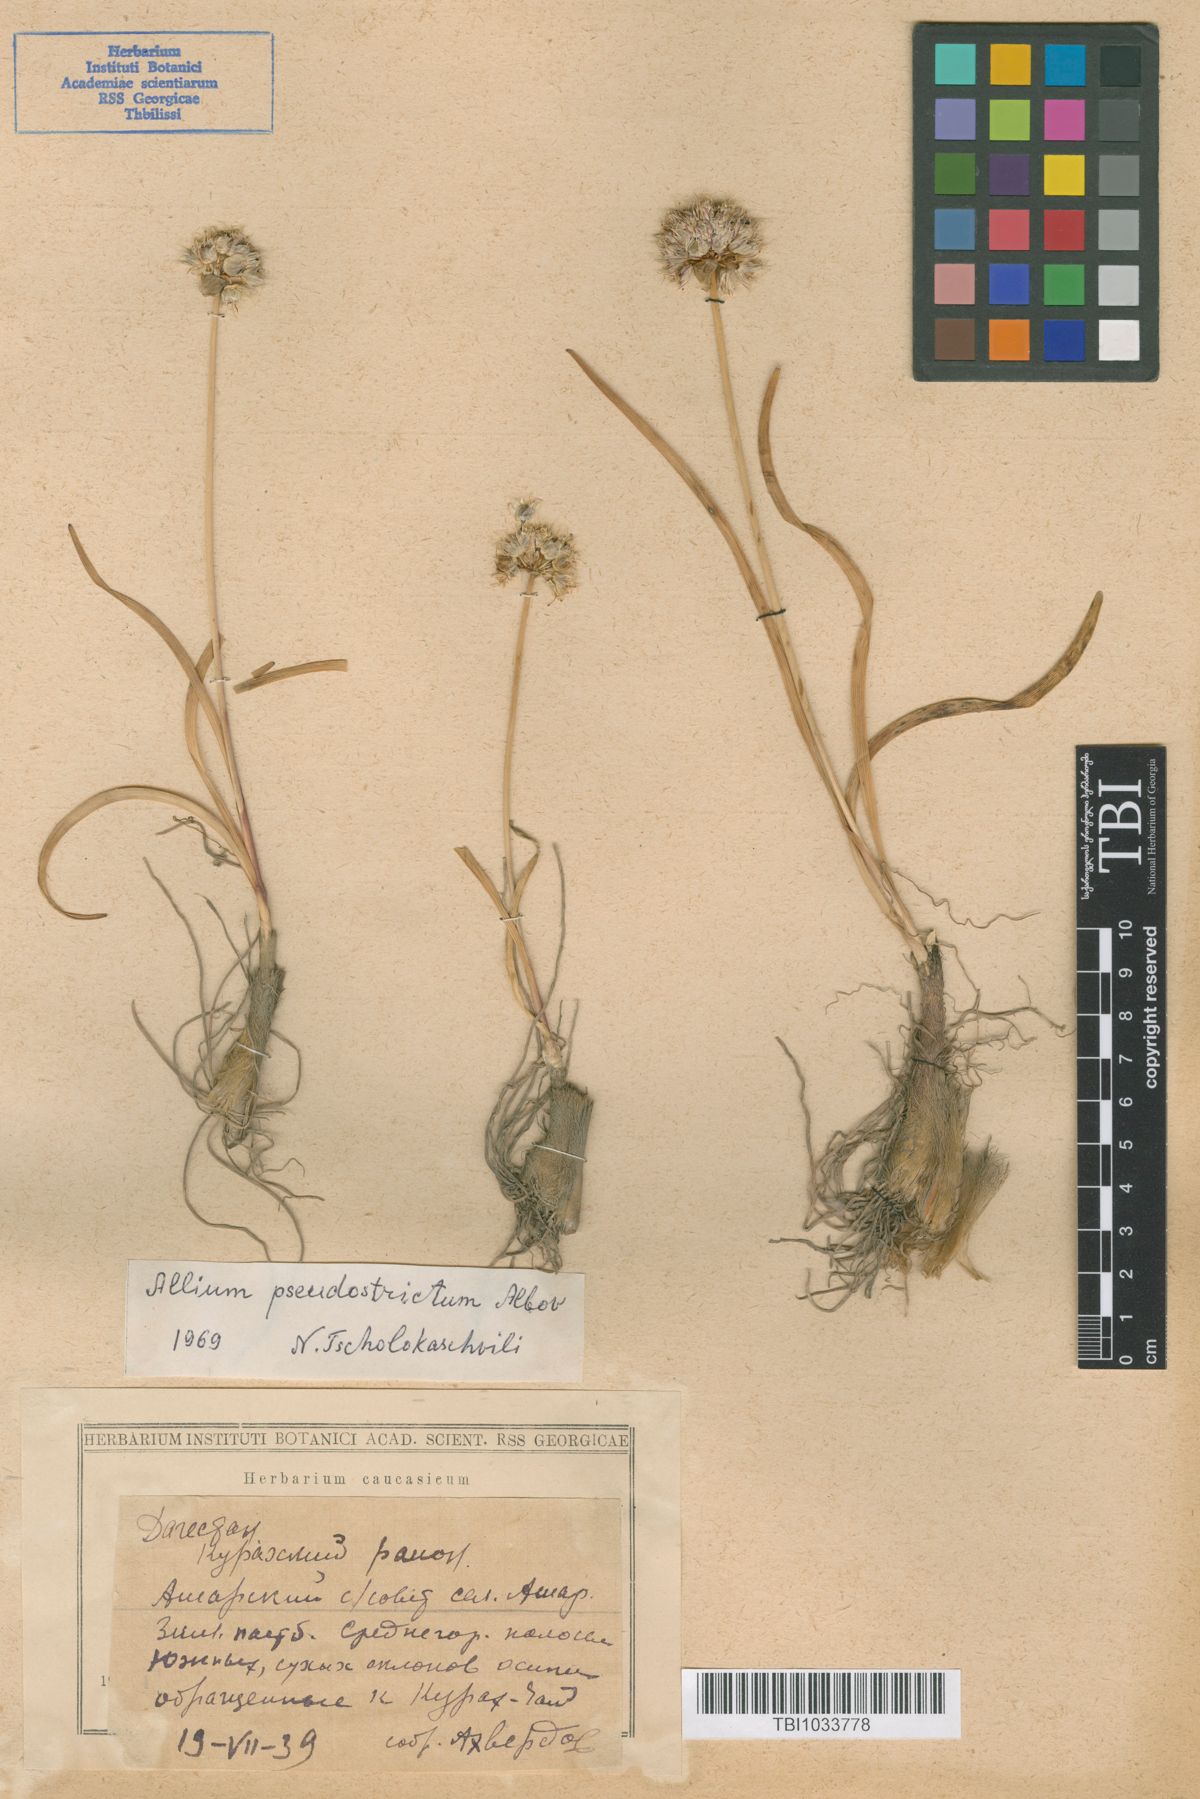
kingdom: Plantae
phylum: Tracheophyta
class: Liliopsida
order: Asparagales
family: Amaryllidaceae
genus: Allium
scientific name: Allium pseudostrictum
